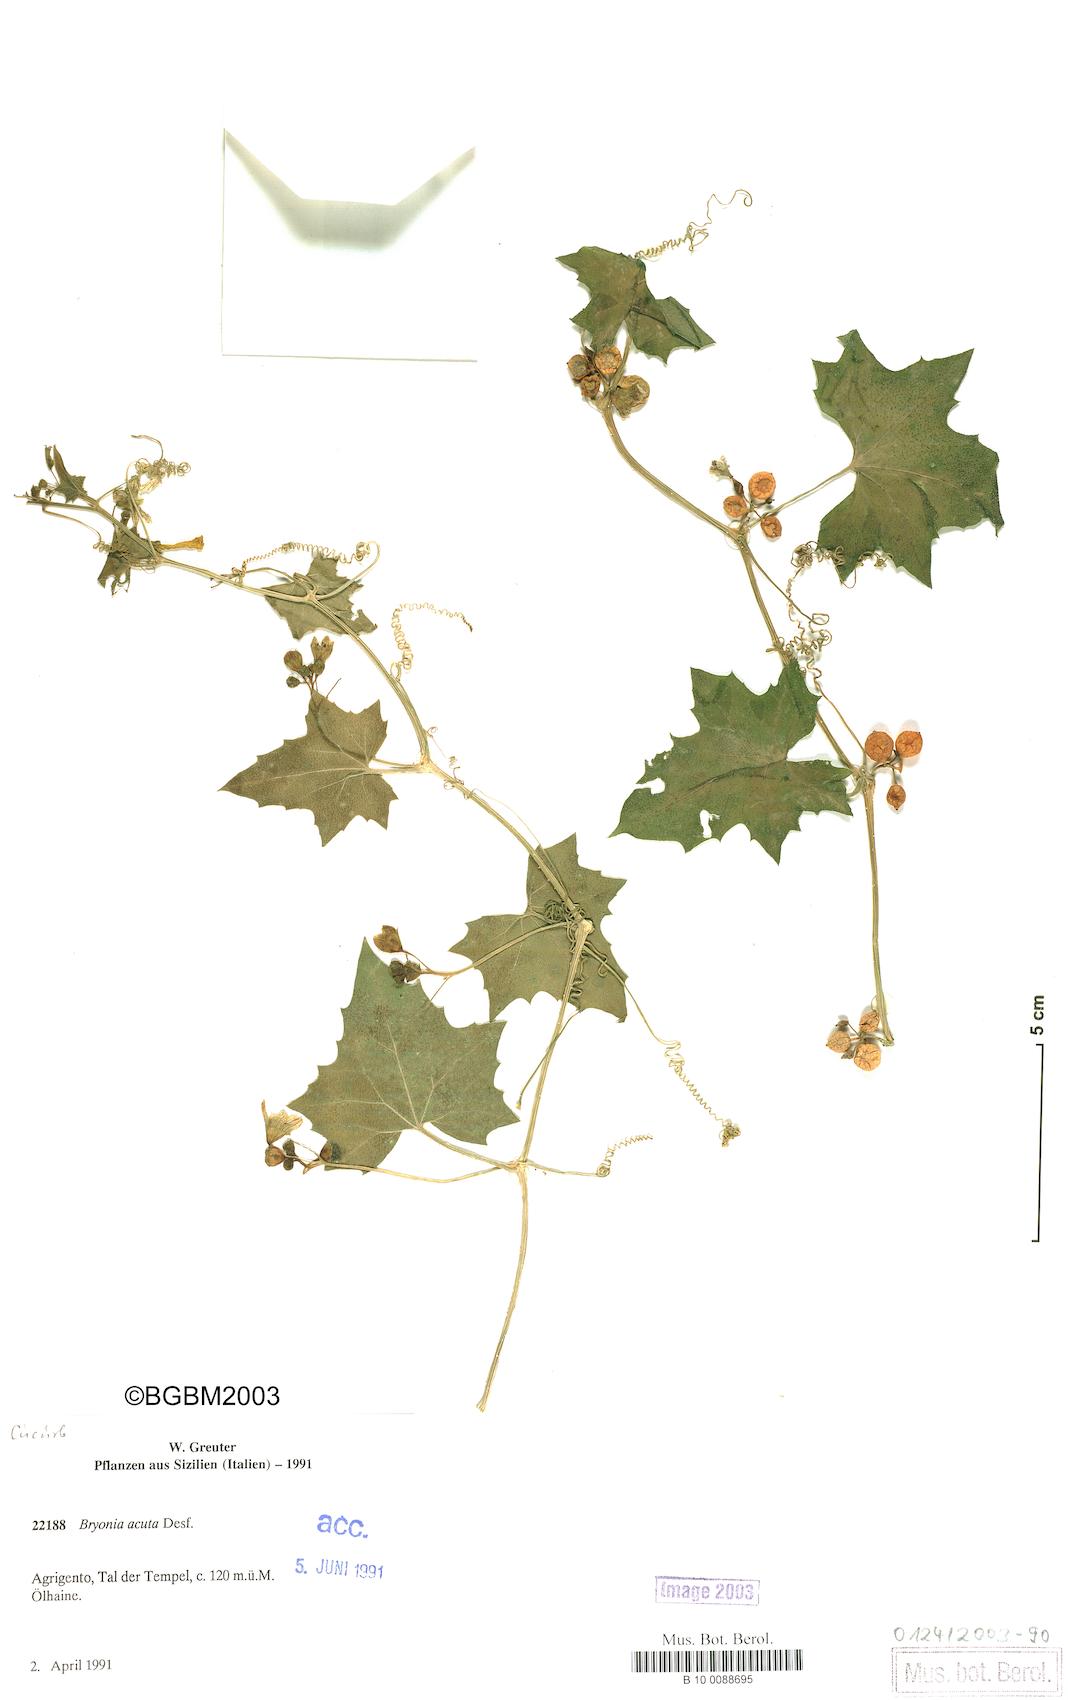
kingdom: Plantae
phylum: Tracheophyta
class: Magnoliopsida
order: Cucurbitales
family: Cucurbitaceae
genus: Bryonia
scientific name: Bryonia acuta
